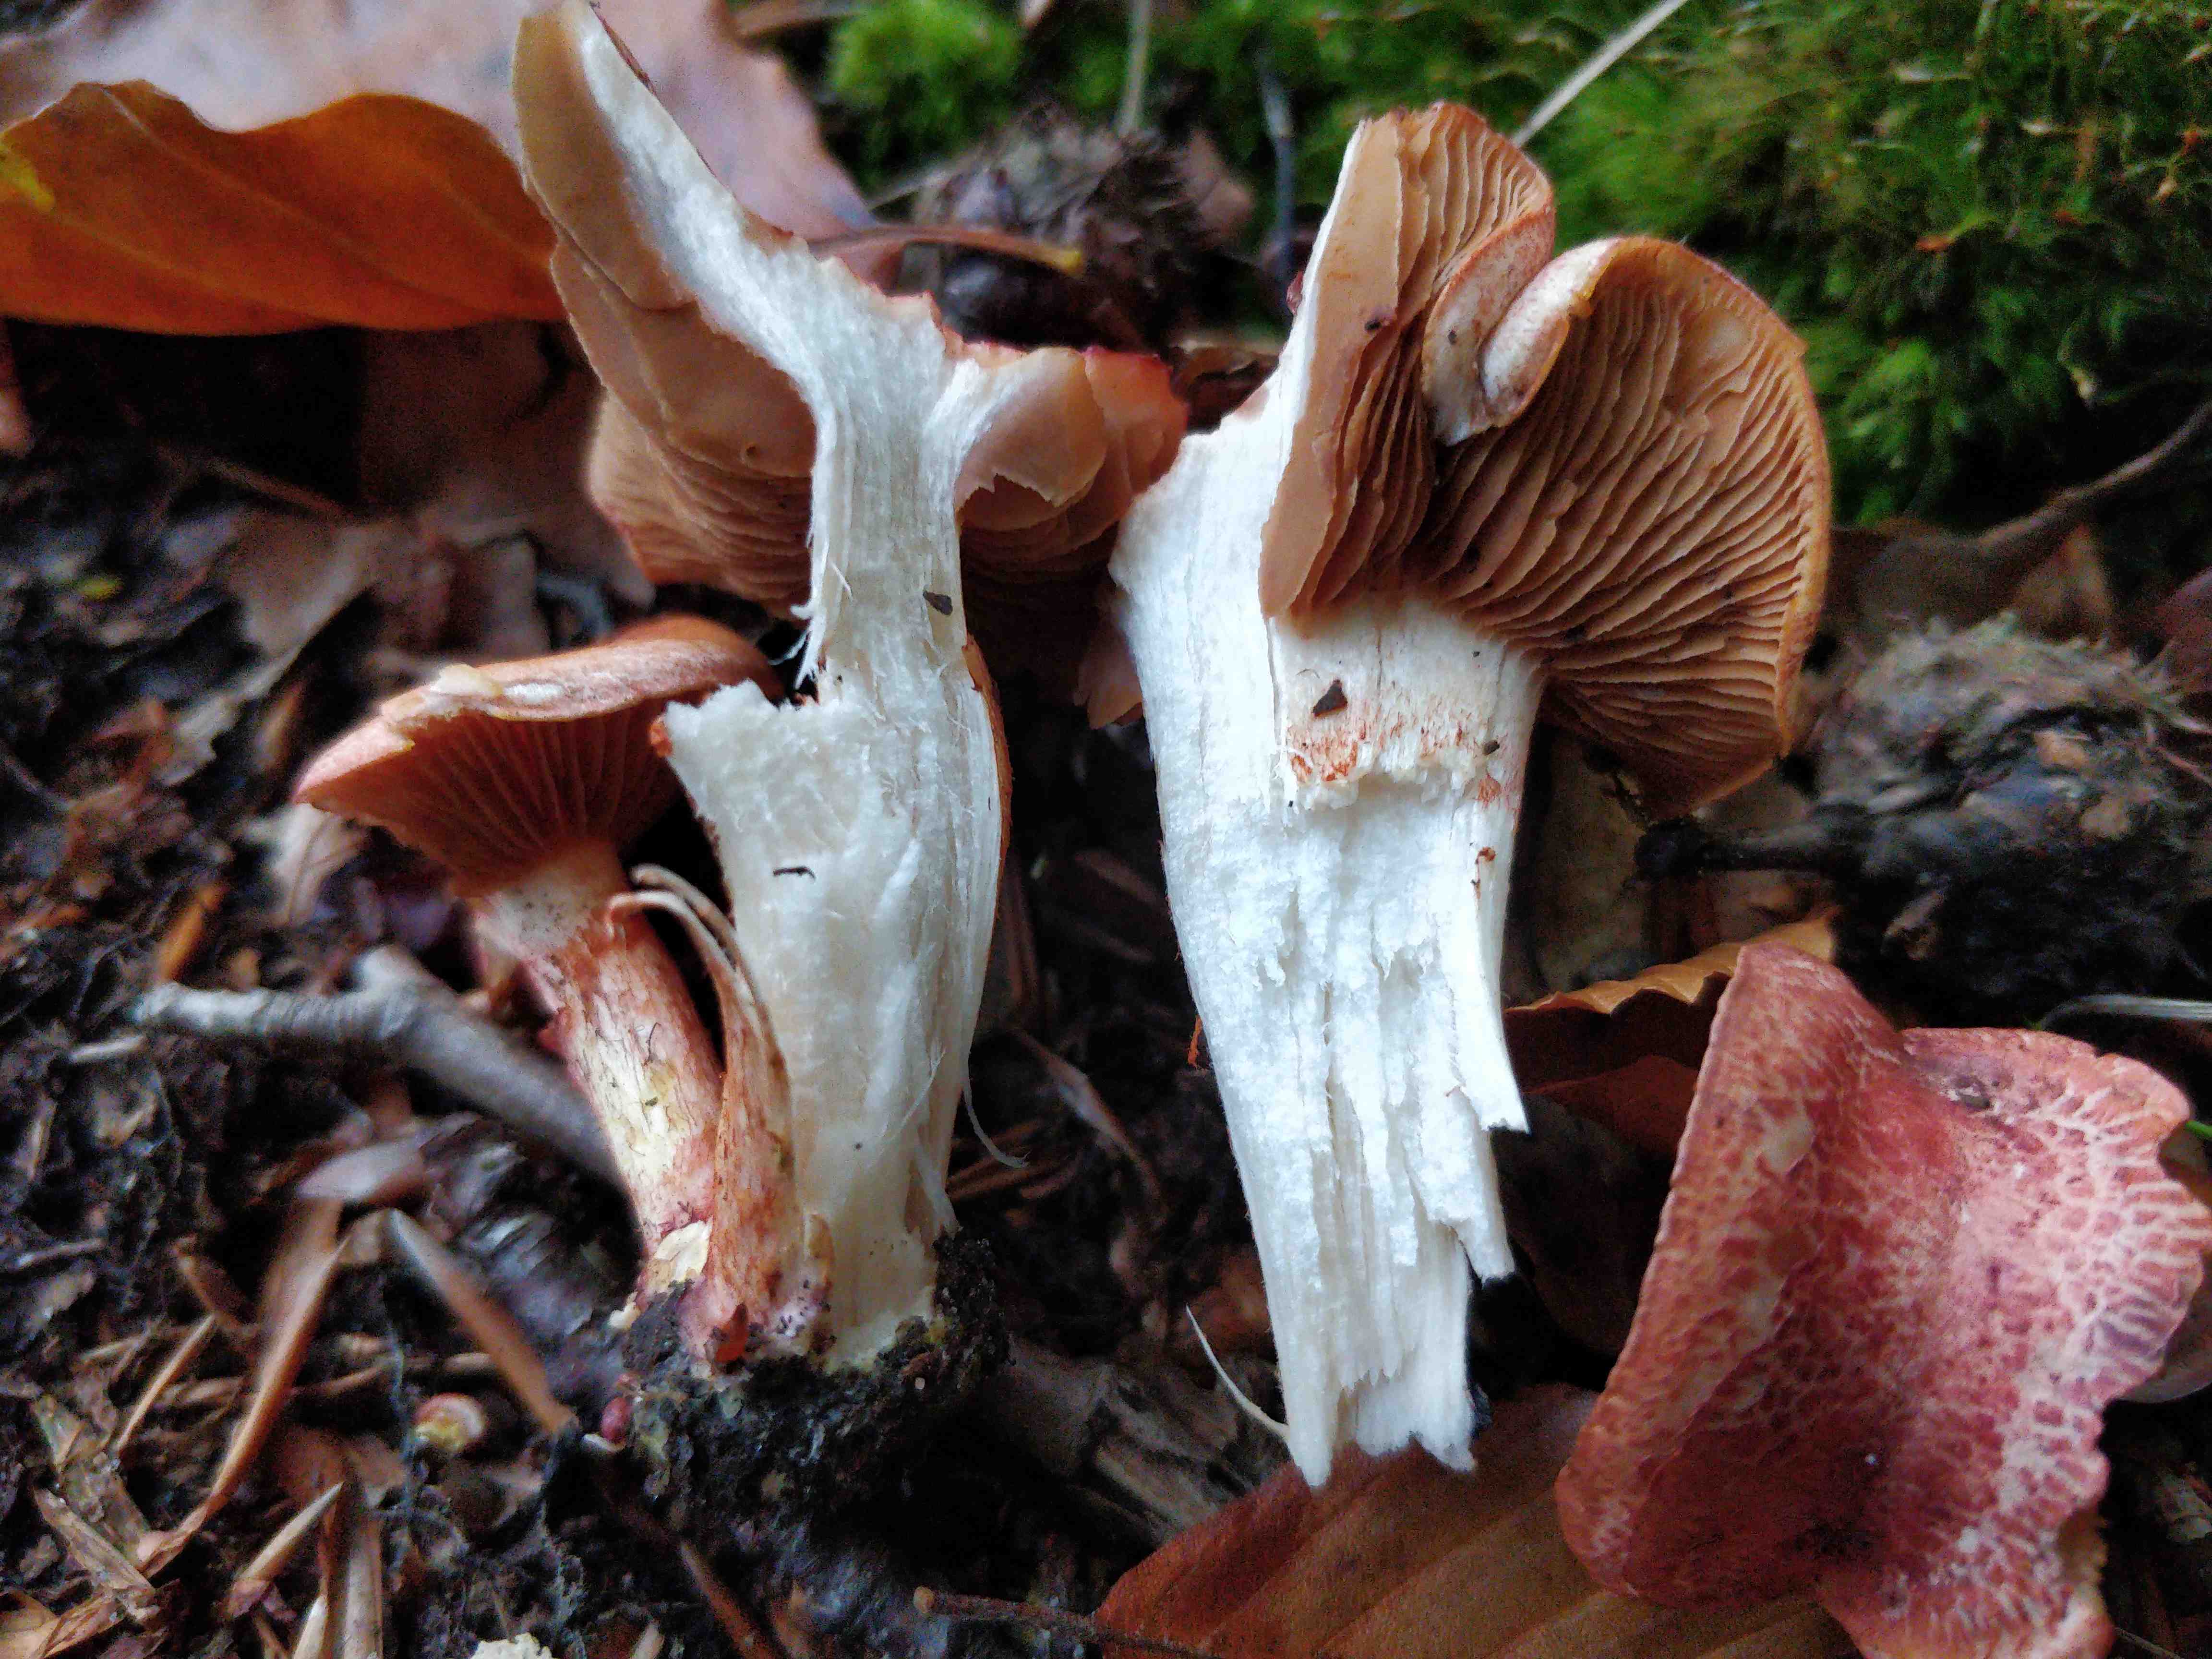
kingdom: Fungi
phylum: Basidiomycota
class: Agaricomycetes
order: Agaricales
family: Cortinariaceae
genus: Cortinarius
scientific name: Cortinarius bolaris
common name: cinnoberskællet slørhat
